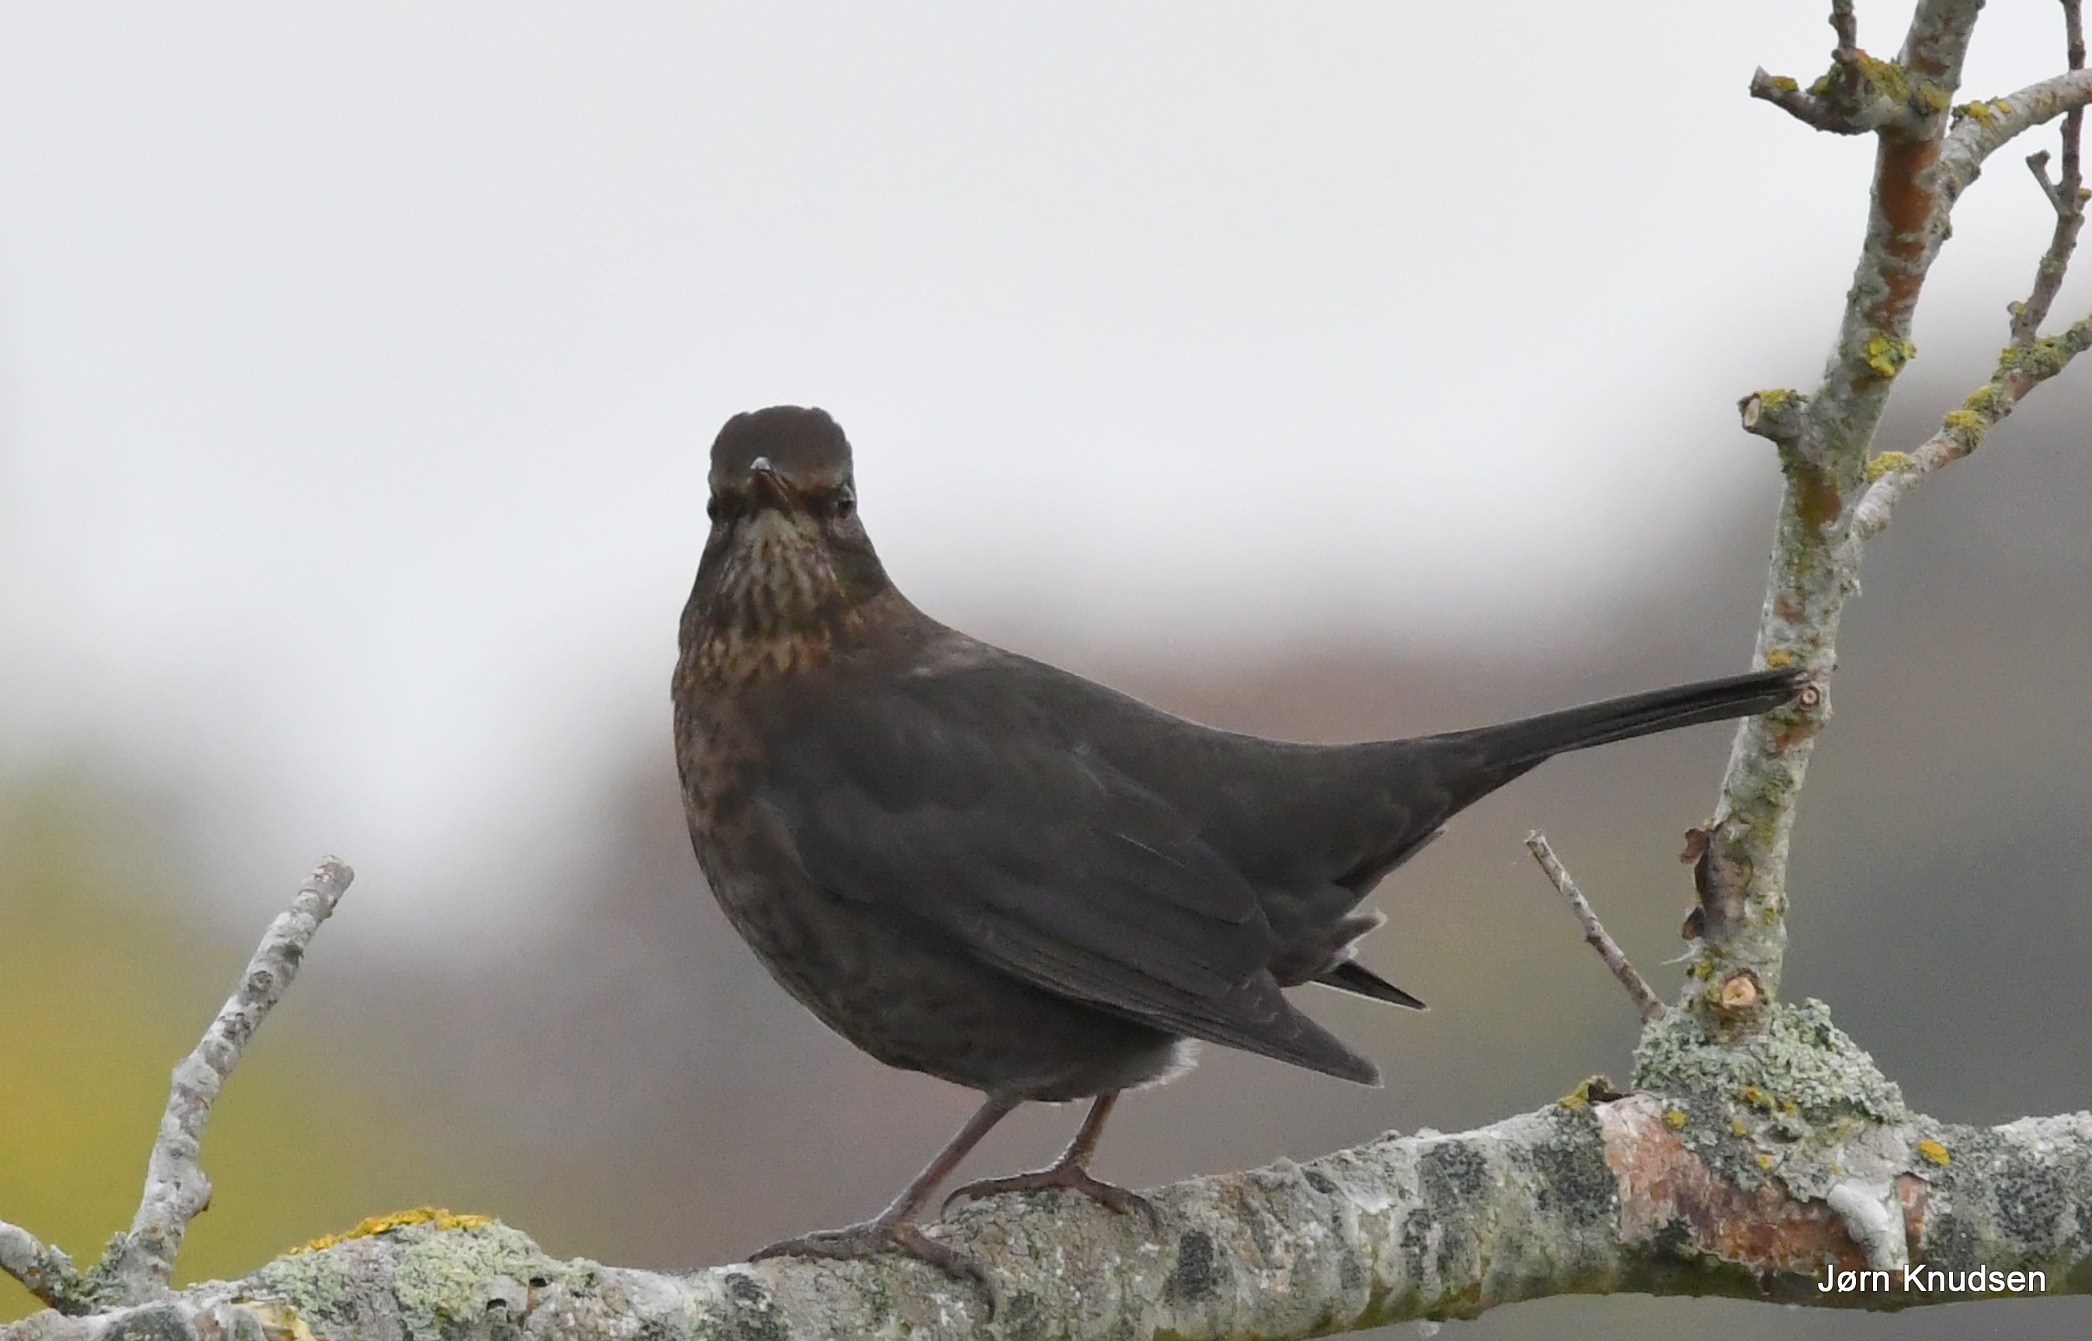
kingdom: Animalia
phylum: Chordata
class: Aves
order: Passeriformes
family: Turdidae
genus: Turdus
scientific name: Turdus merula
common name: Solsort
